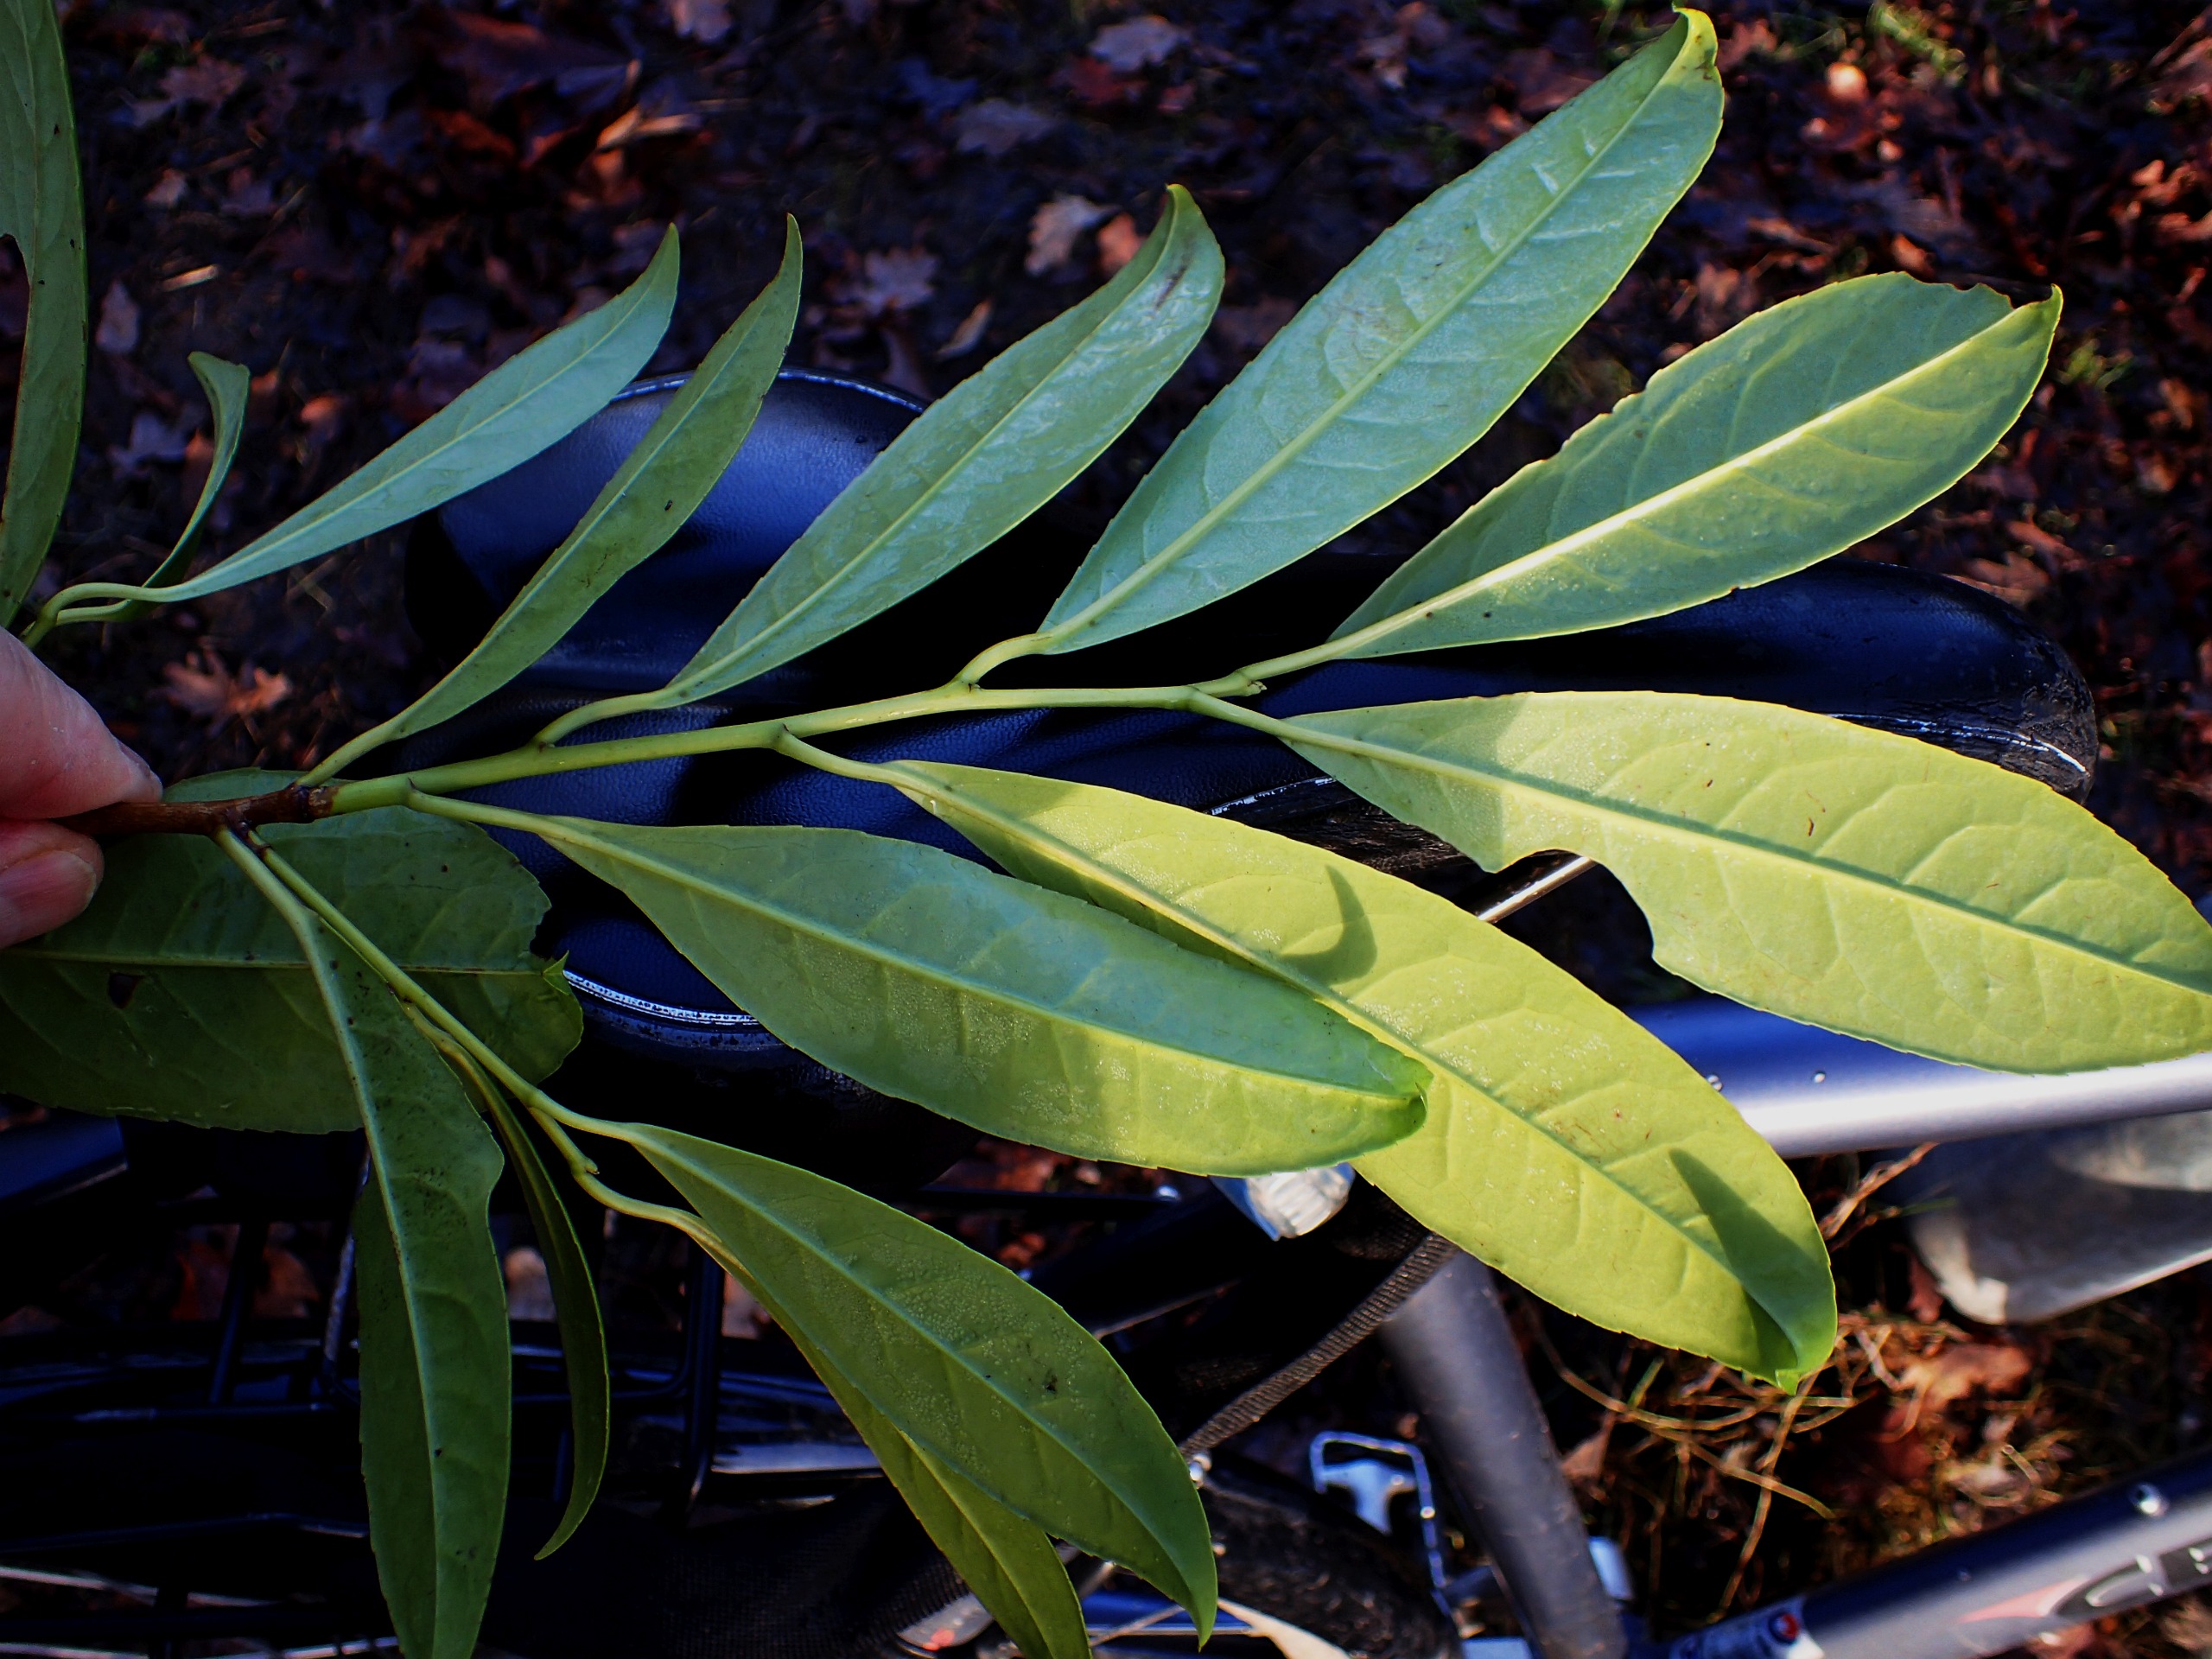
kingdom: Plantae
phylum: Tracheophyta
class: Magnoliopsida
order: Rosales
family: Rosaceae
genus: Prunus
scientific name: Prunus laurocerasus
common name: Laurbærkirsebær
